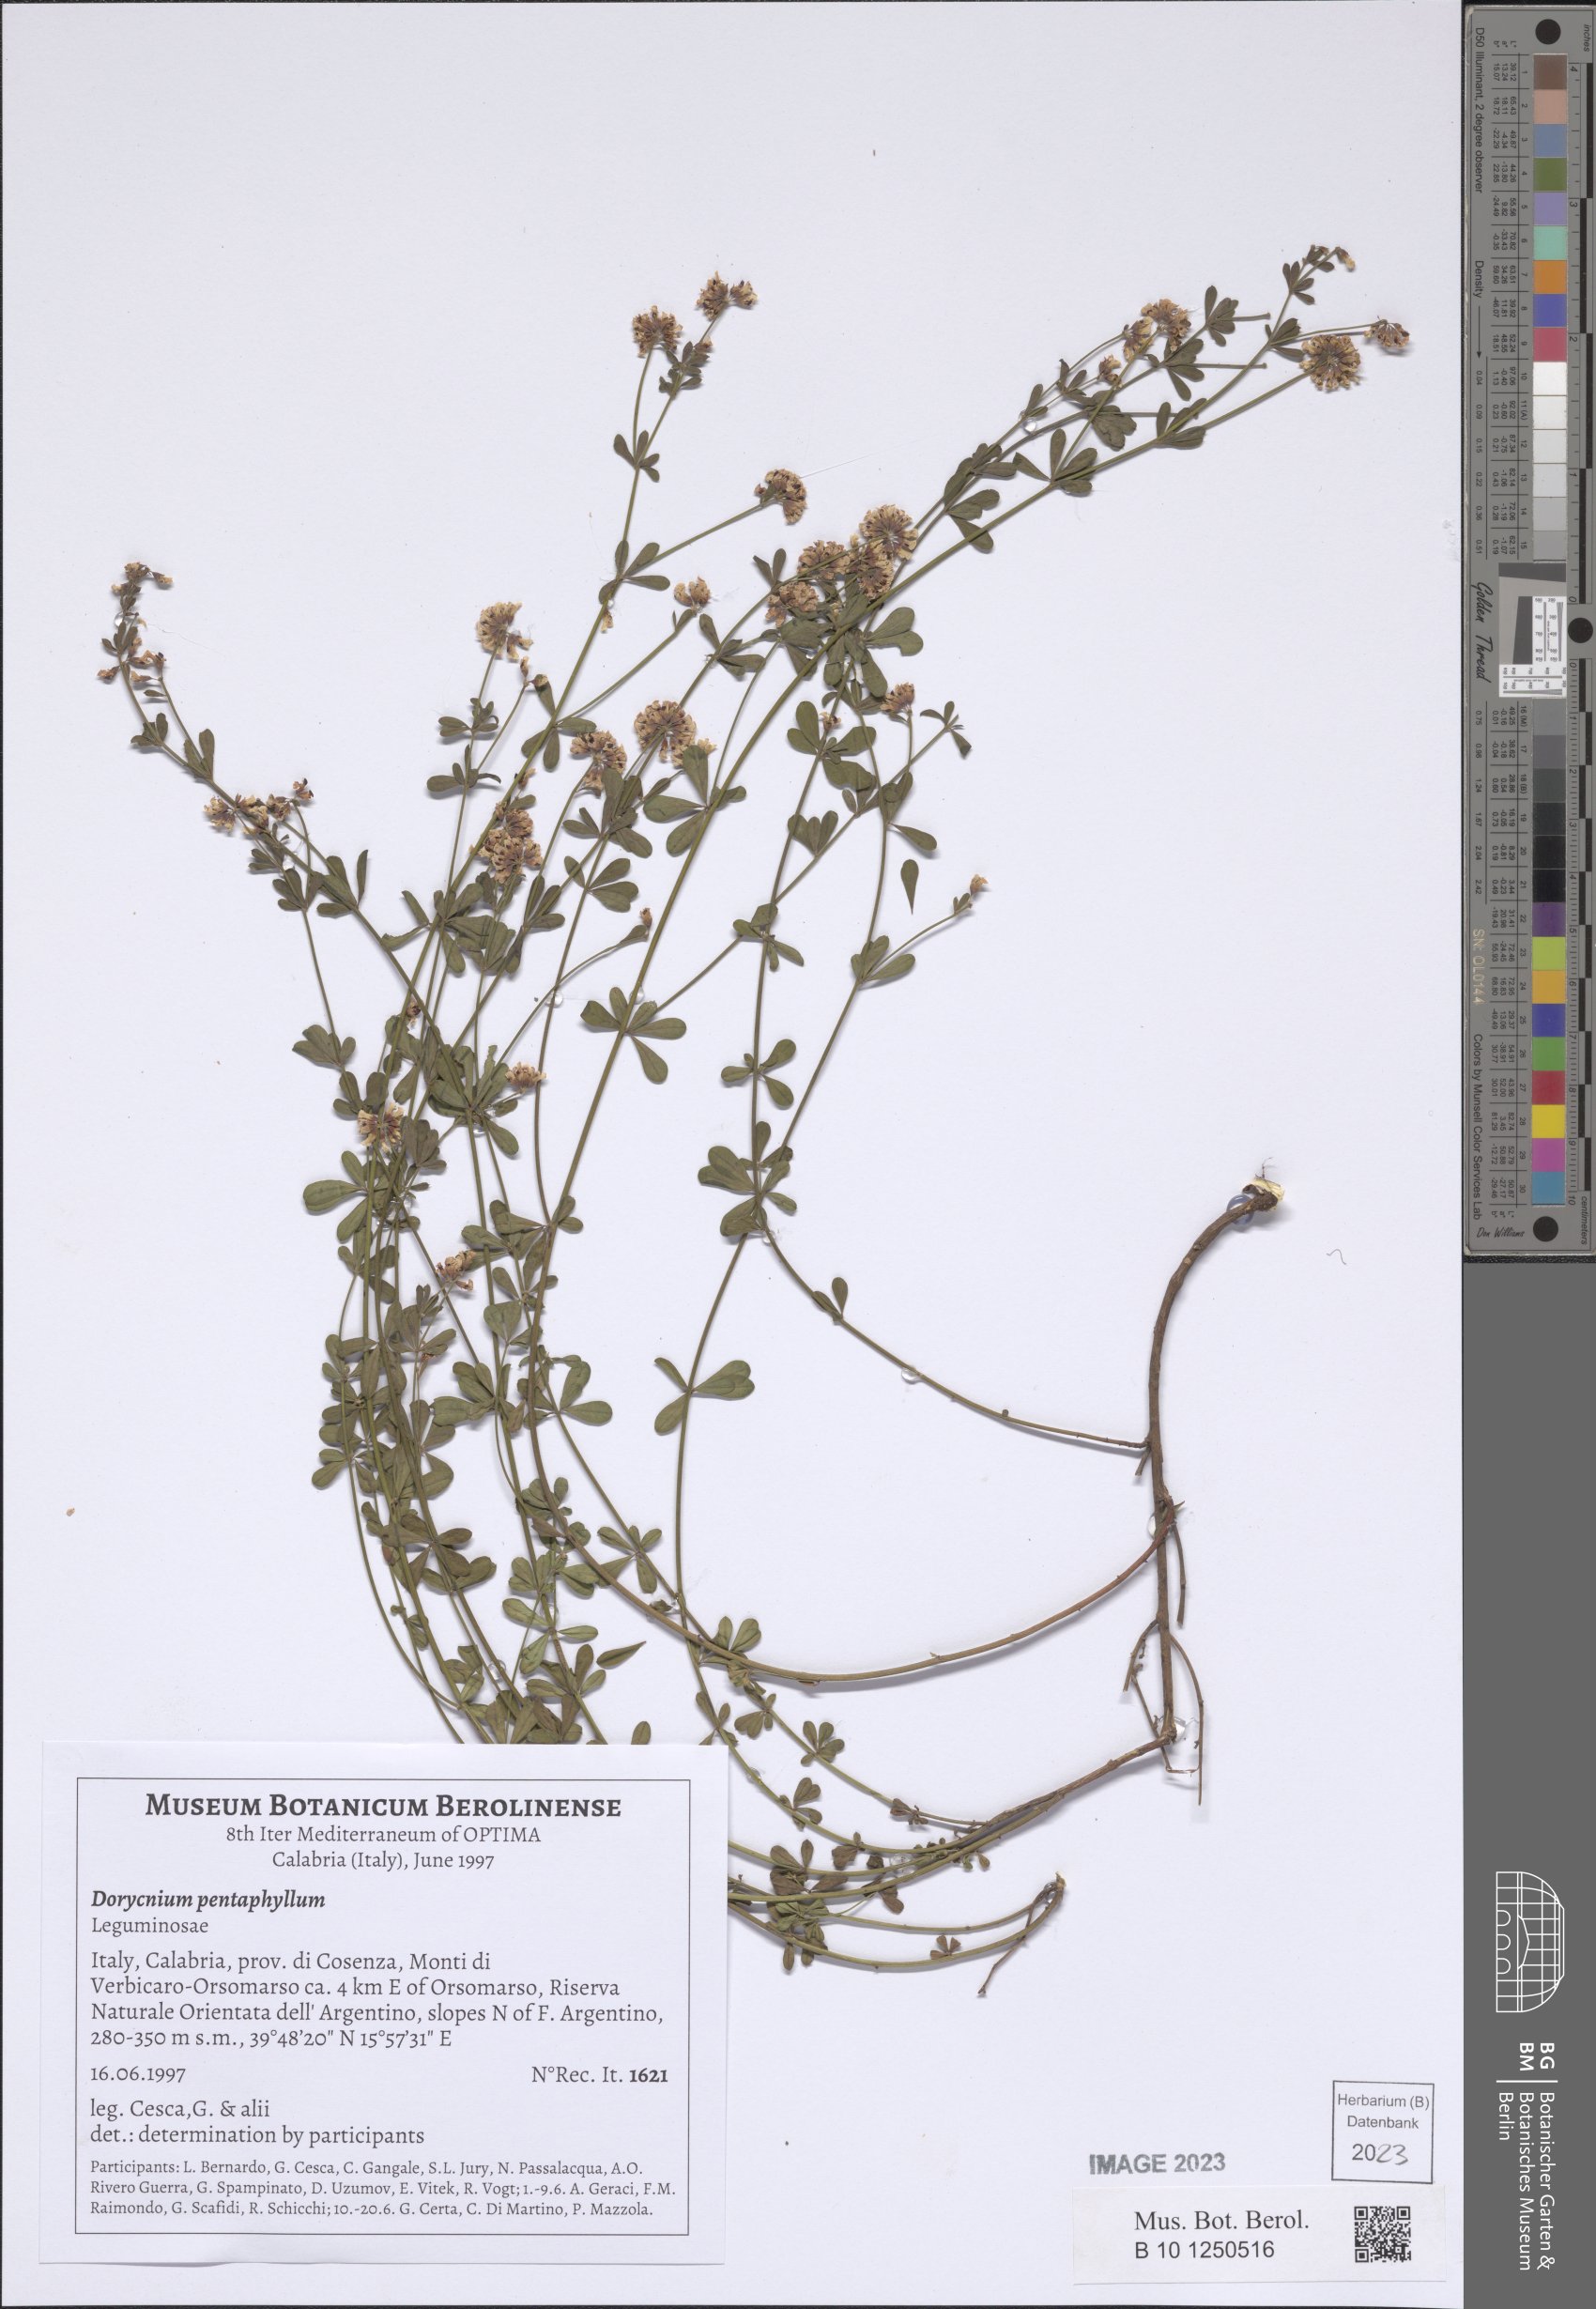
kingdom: Plantae
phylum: Tracheophyta
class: Magnoliopsida
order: Fabales
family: Fabaceae
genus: Lotus
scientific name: Lotus dorycnium
